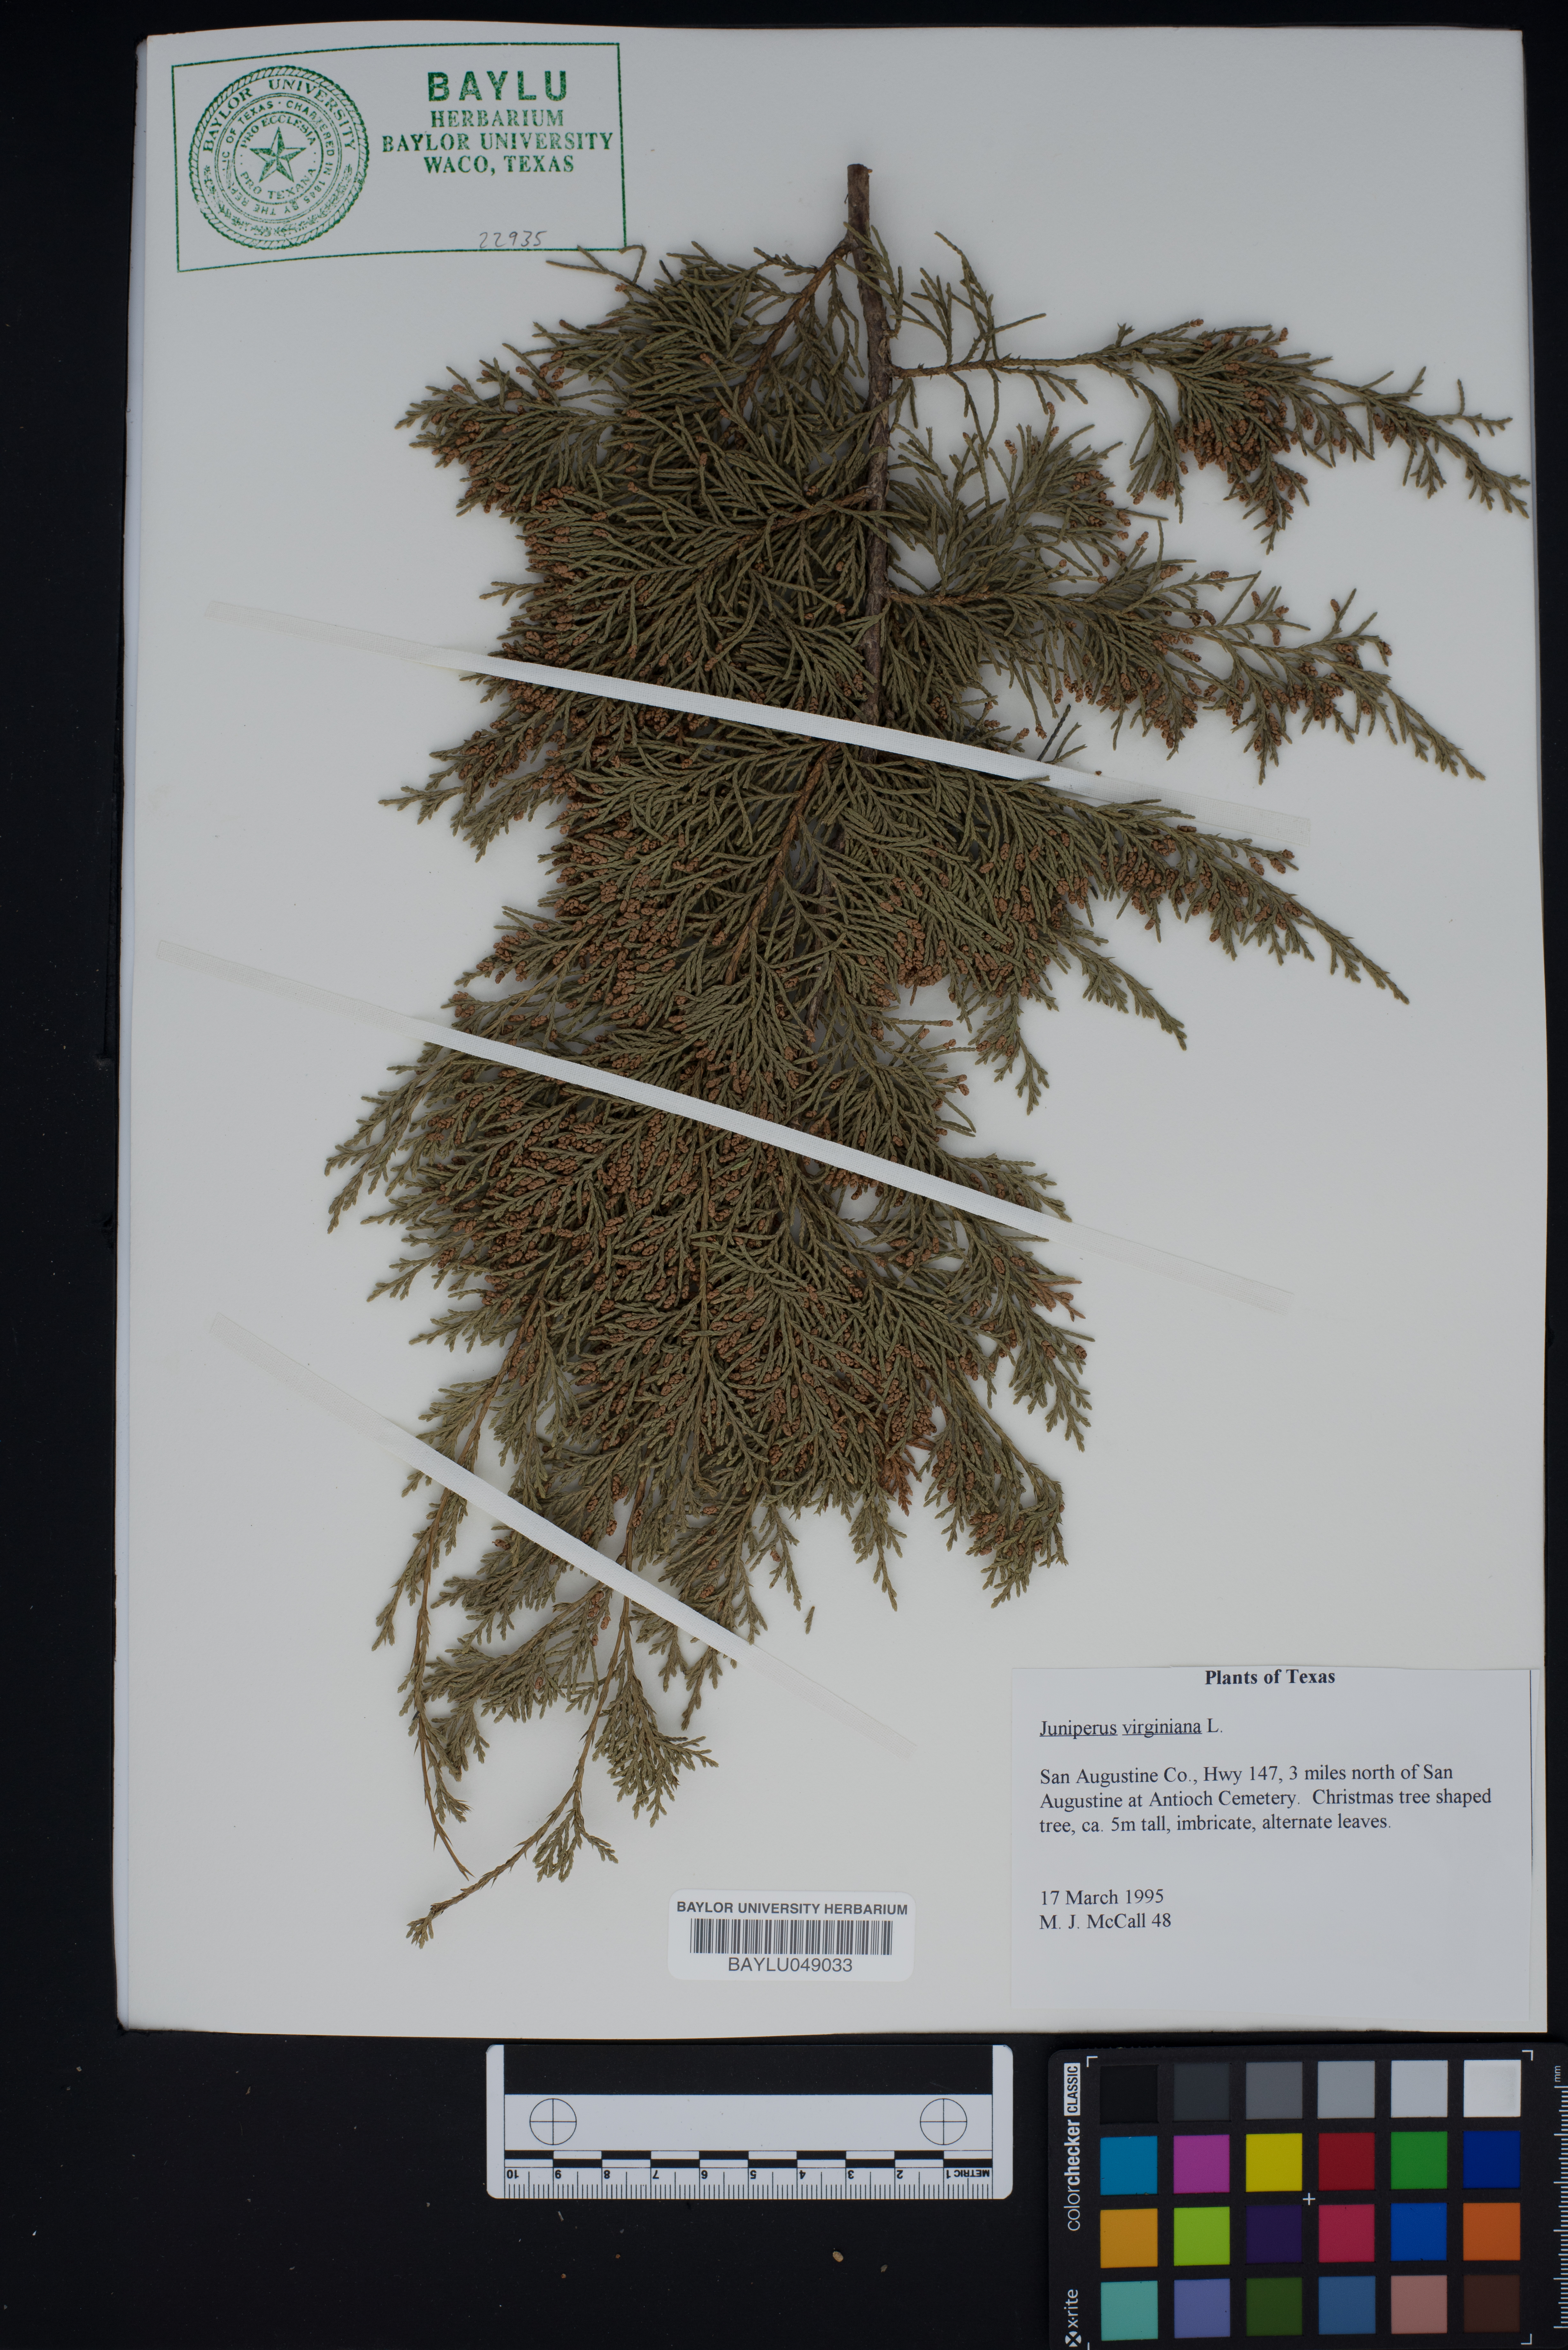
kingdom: Plantae
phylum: Tracheophyta
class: Pinopsida
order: Pinales
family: Cupressaceae
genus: Juniperus
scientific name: Juniperus virginiana
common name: Red juniper
